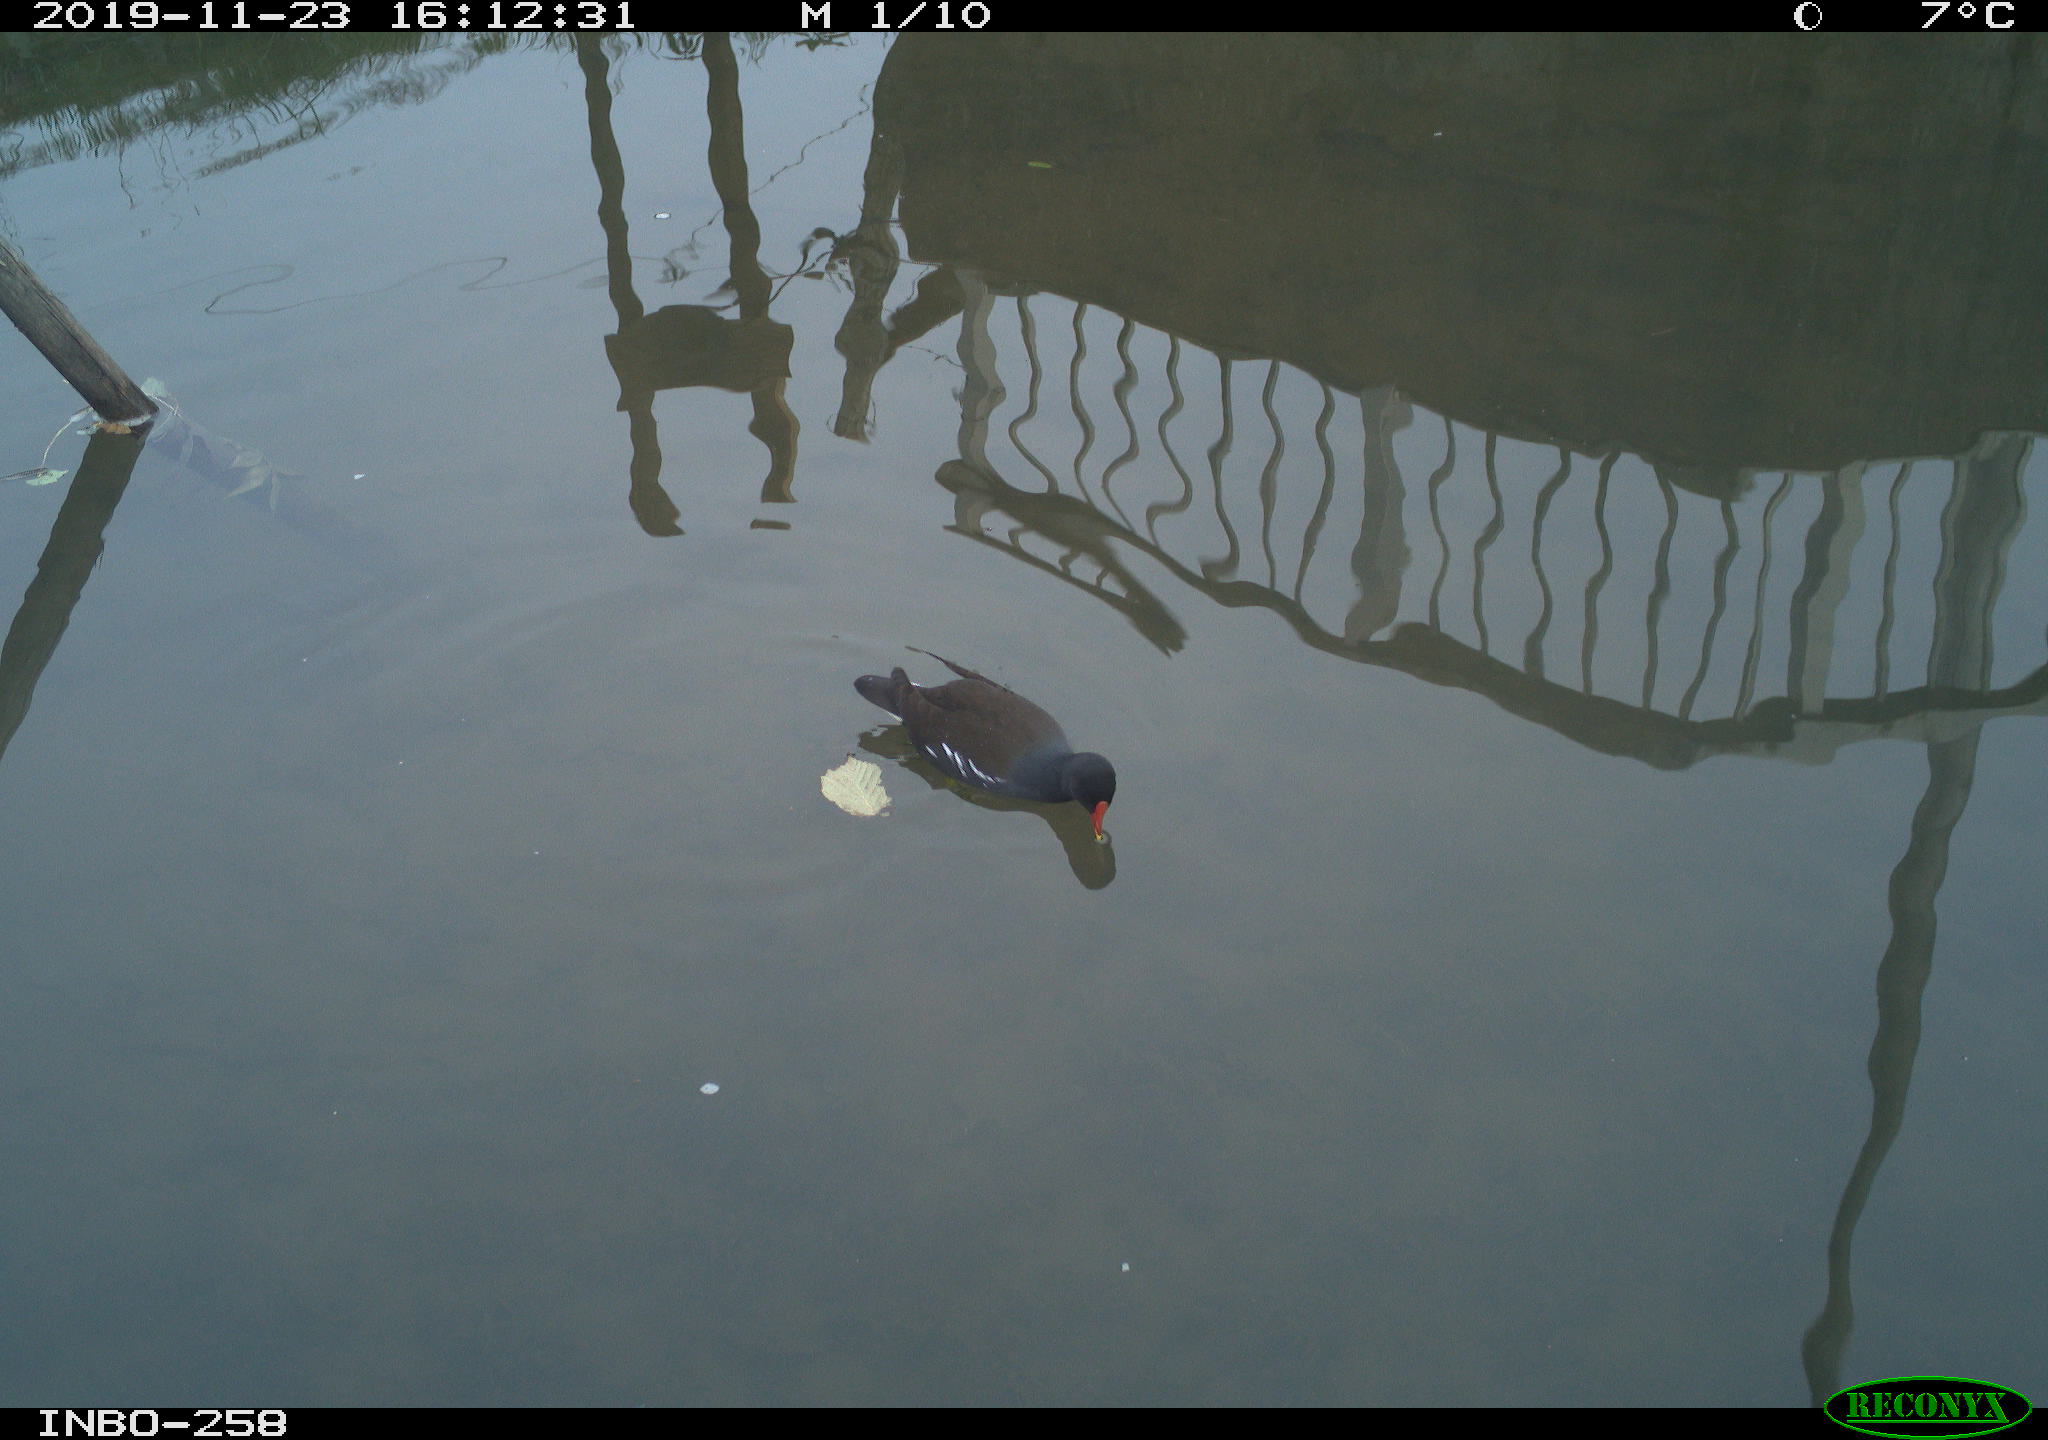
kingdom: Animalia
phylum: Chordata
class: Aves
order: Gruiformes
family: Rallidae
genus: Gallinula
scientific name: Gallinula chloropus
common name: Common moorhen
